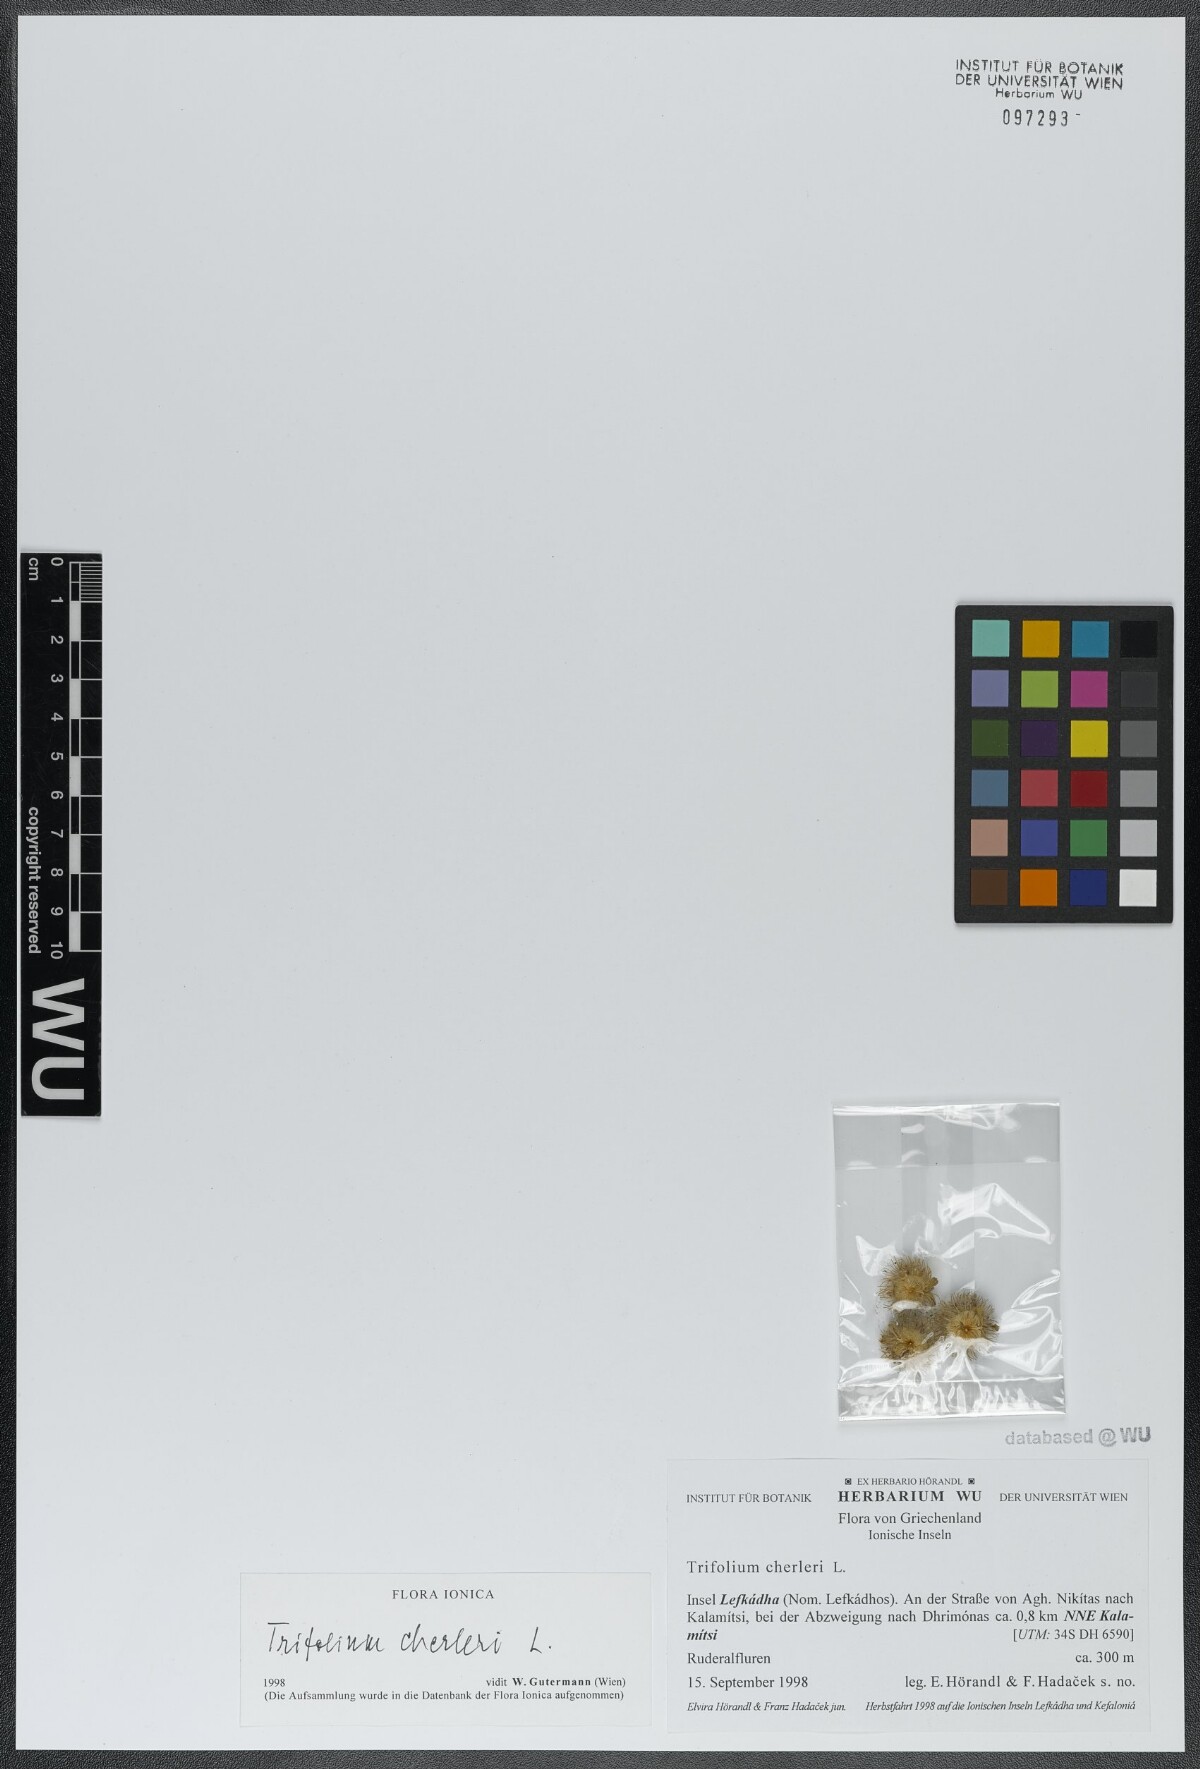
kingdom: Plantae
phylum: Tracheophyta
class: Magnoliopsida
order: Fabales
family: Fabaceae
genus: Trifolium
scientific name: Trifolium cherleri
